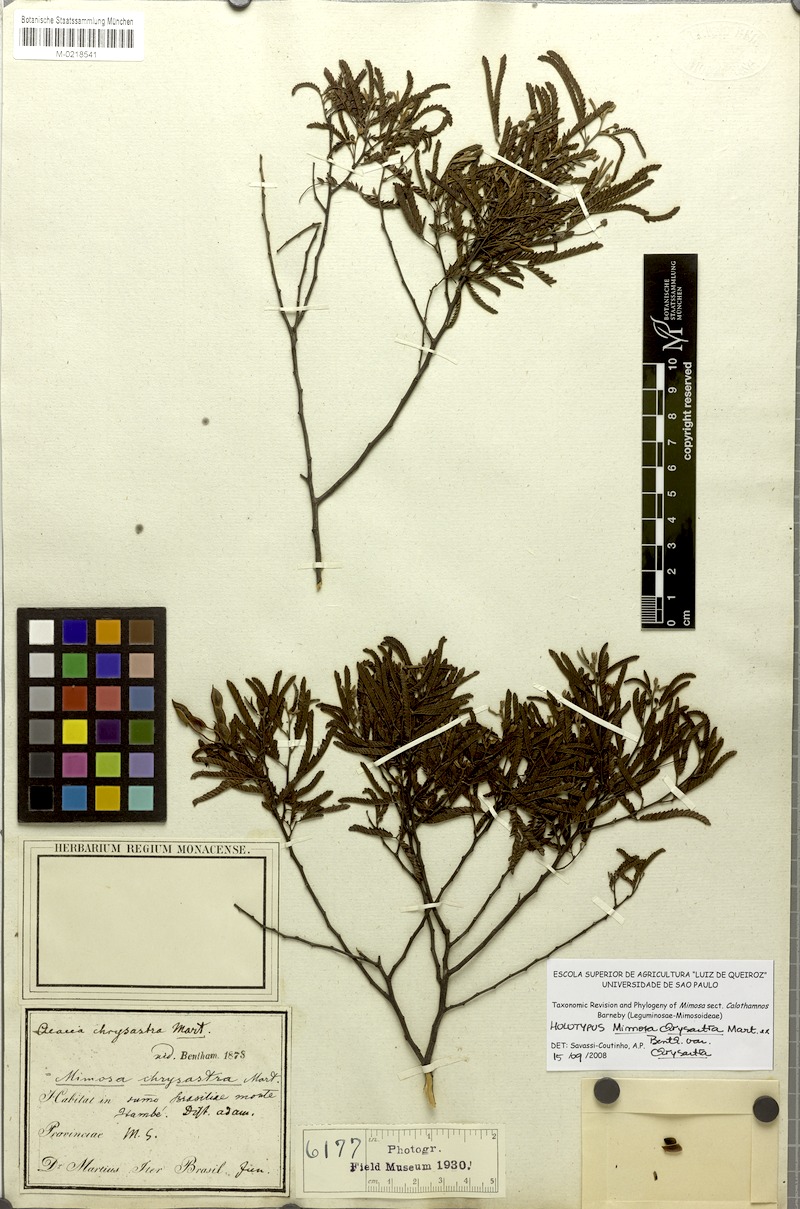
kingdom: Plantae
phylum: Tracheophyta
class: Magnoliopsida
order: Fabales
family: Fabaceae
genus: Mimosa
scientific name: Mimosa chrysastra
